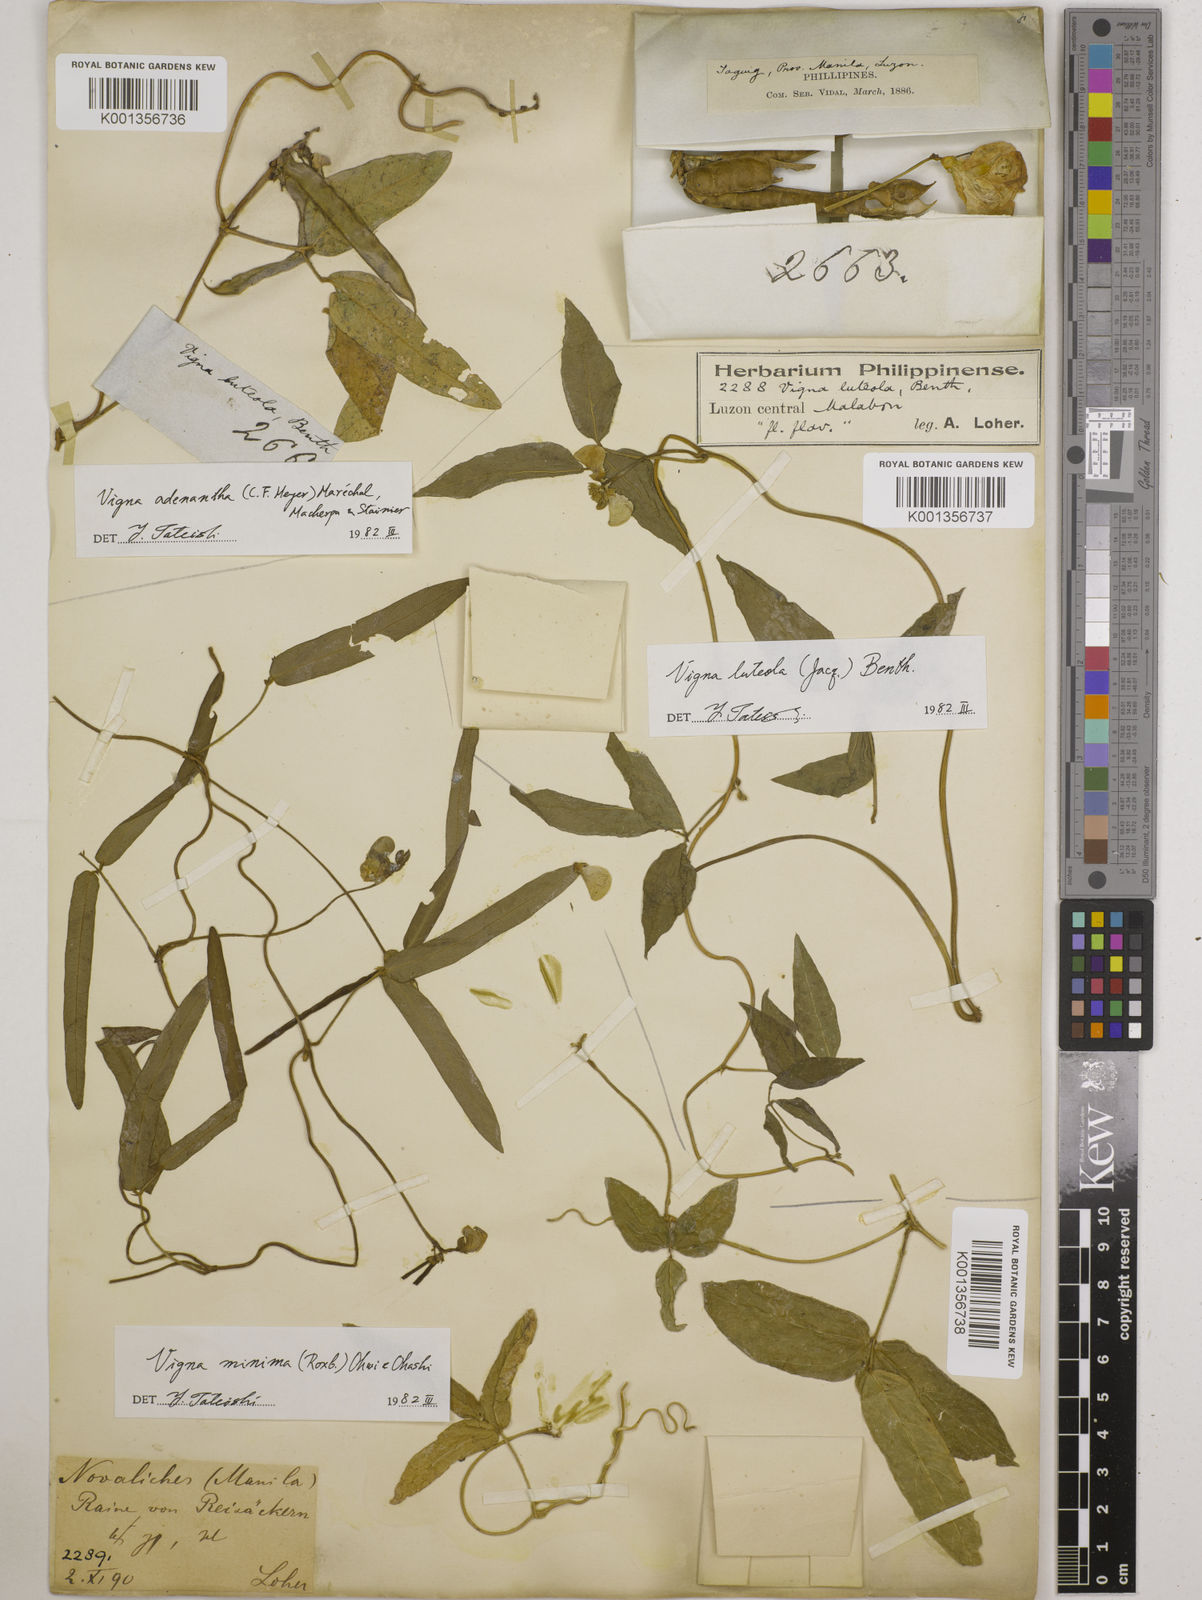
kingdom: Plantae
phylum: Tracheophyta
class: Magnoliopsida
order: Fabales
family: Fabaceae
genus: Vigna
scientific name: Vigna luteola
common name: Hairypod cowpea
